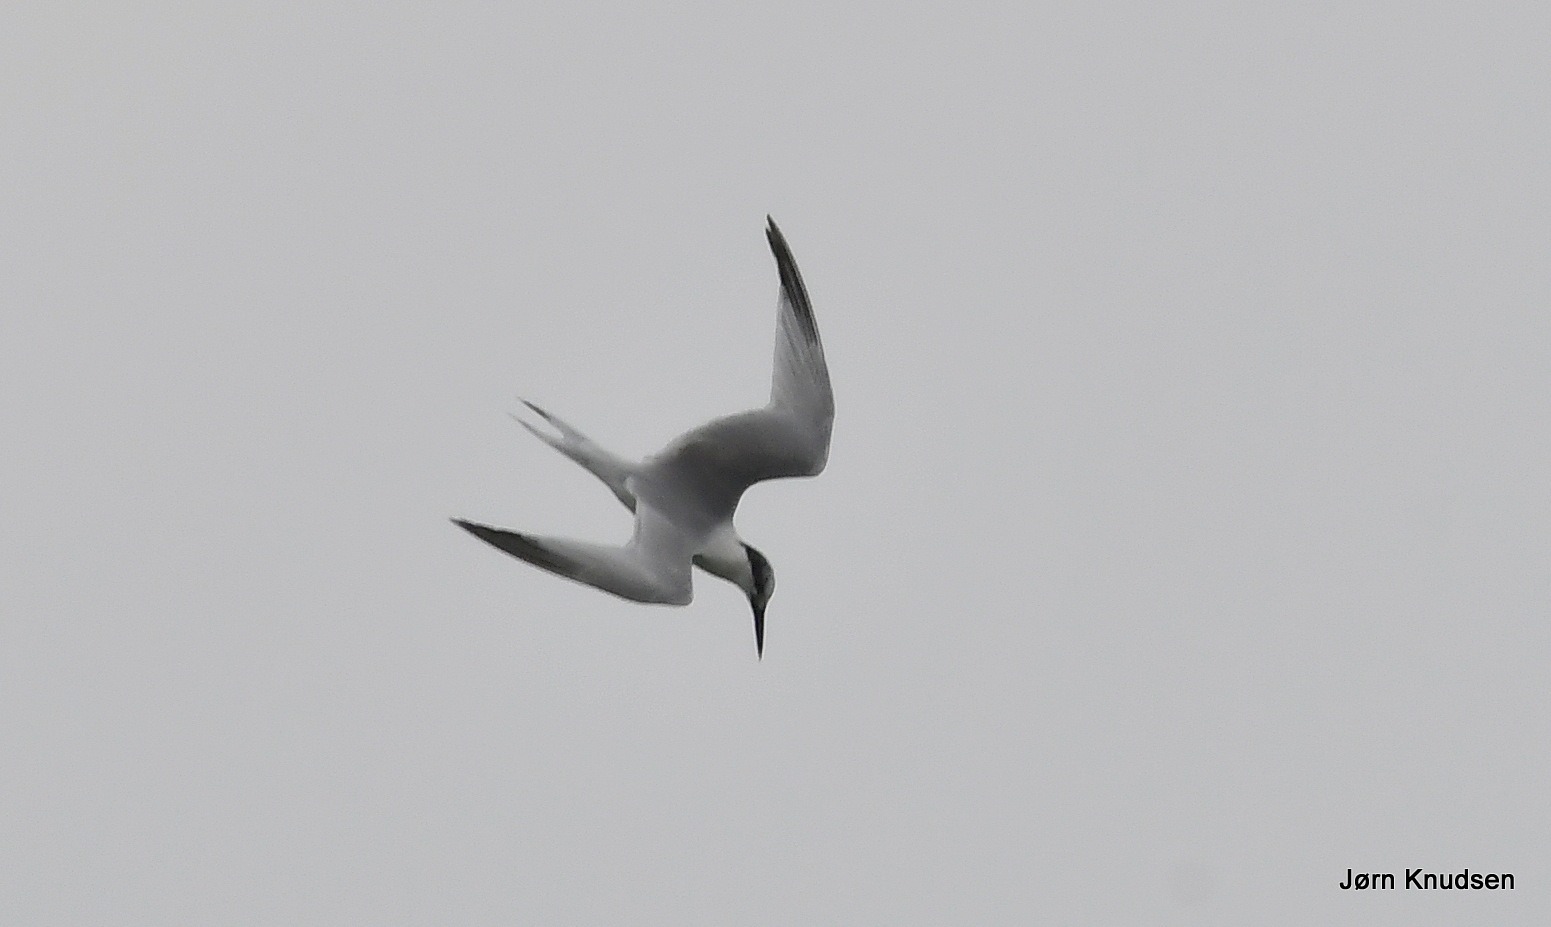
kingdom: Animalia
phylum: Chordata
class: Aves
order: Charadriiformes
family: Laridae
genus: Thalasseus
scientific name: Thalasseus sandvicensis
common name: Splitterne
